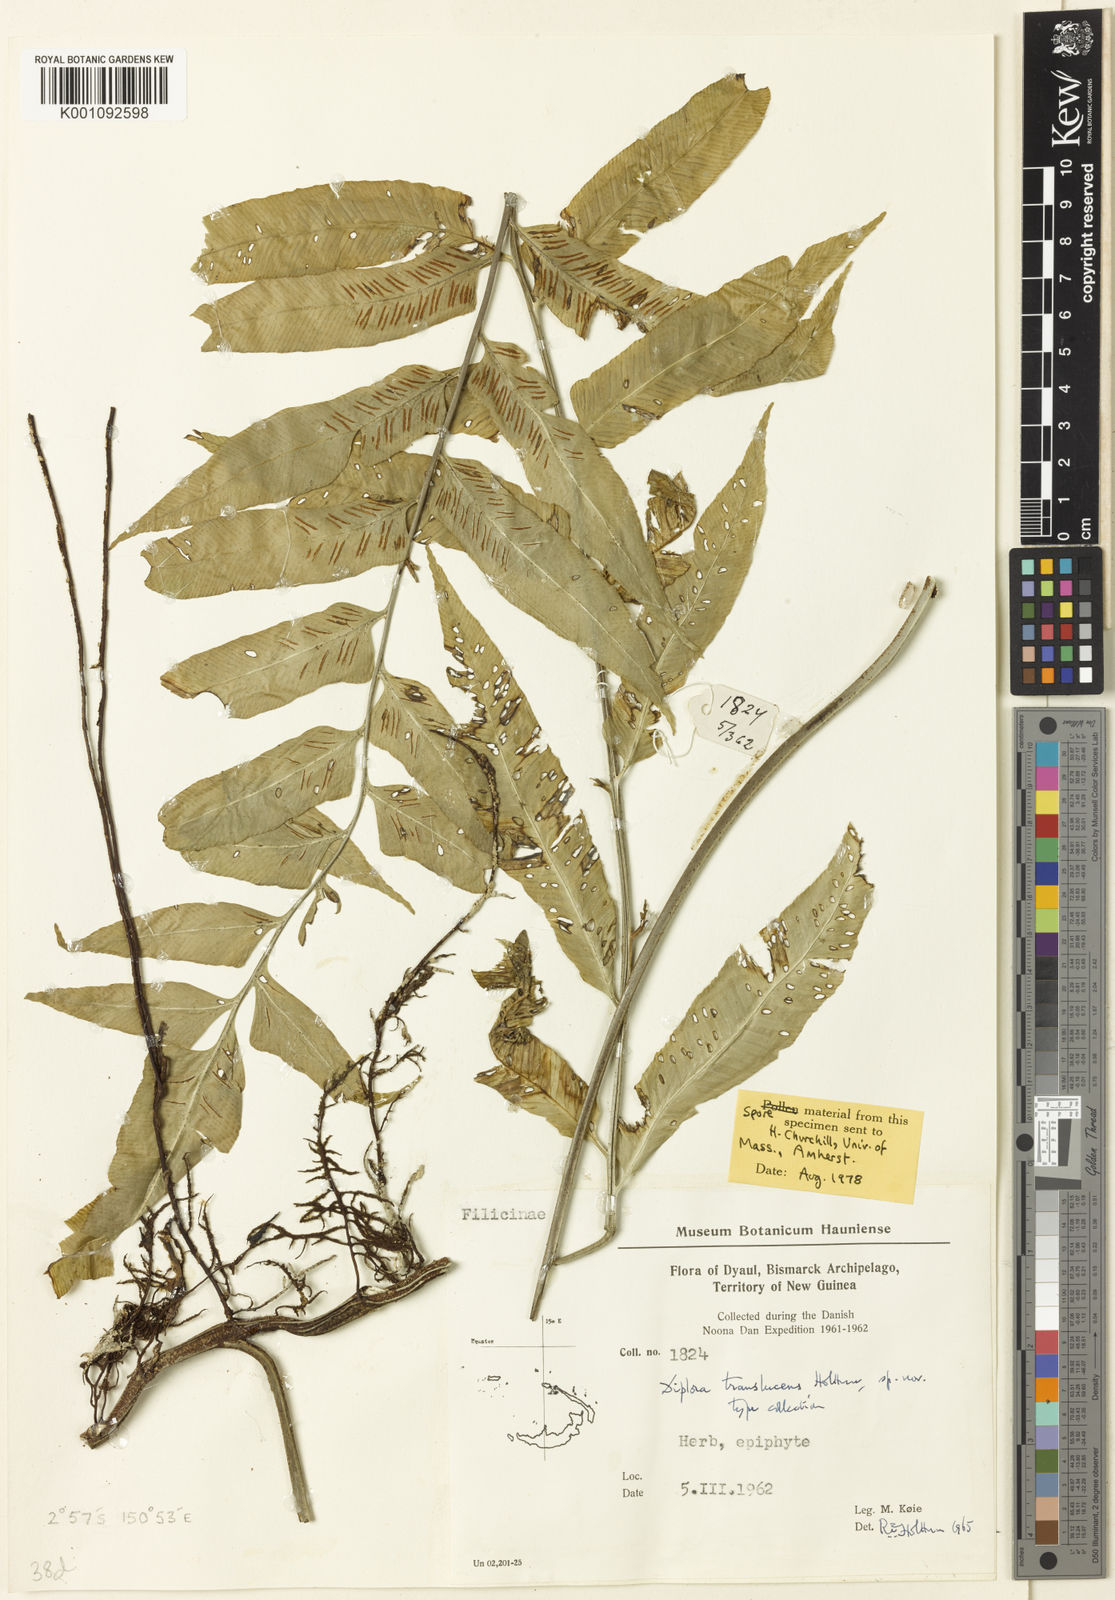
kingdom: Plantae
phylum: Tracheophyta
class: Polypodiopsida
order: Polypodiales
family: Aspleniaceae
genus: Asplenium
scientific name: Asplenium translucens
